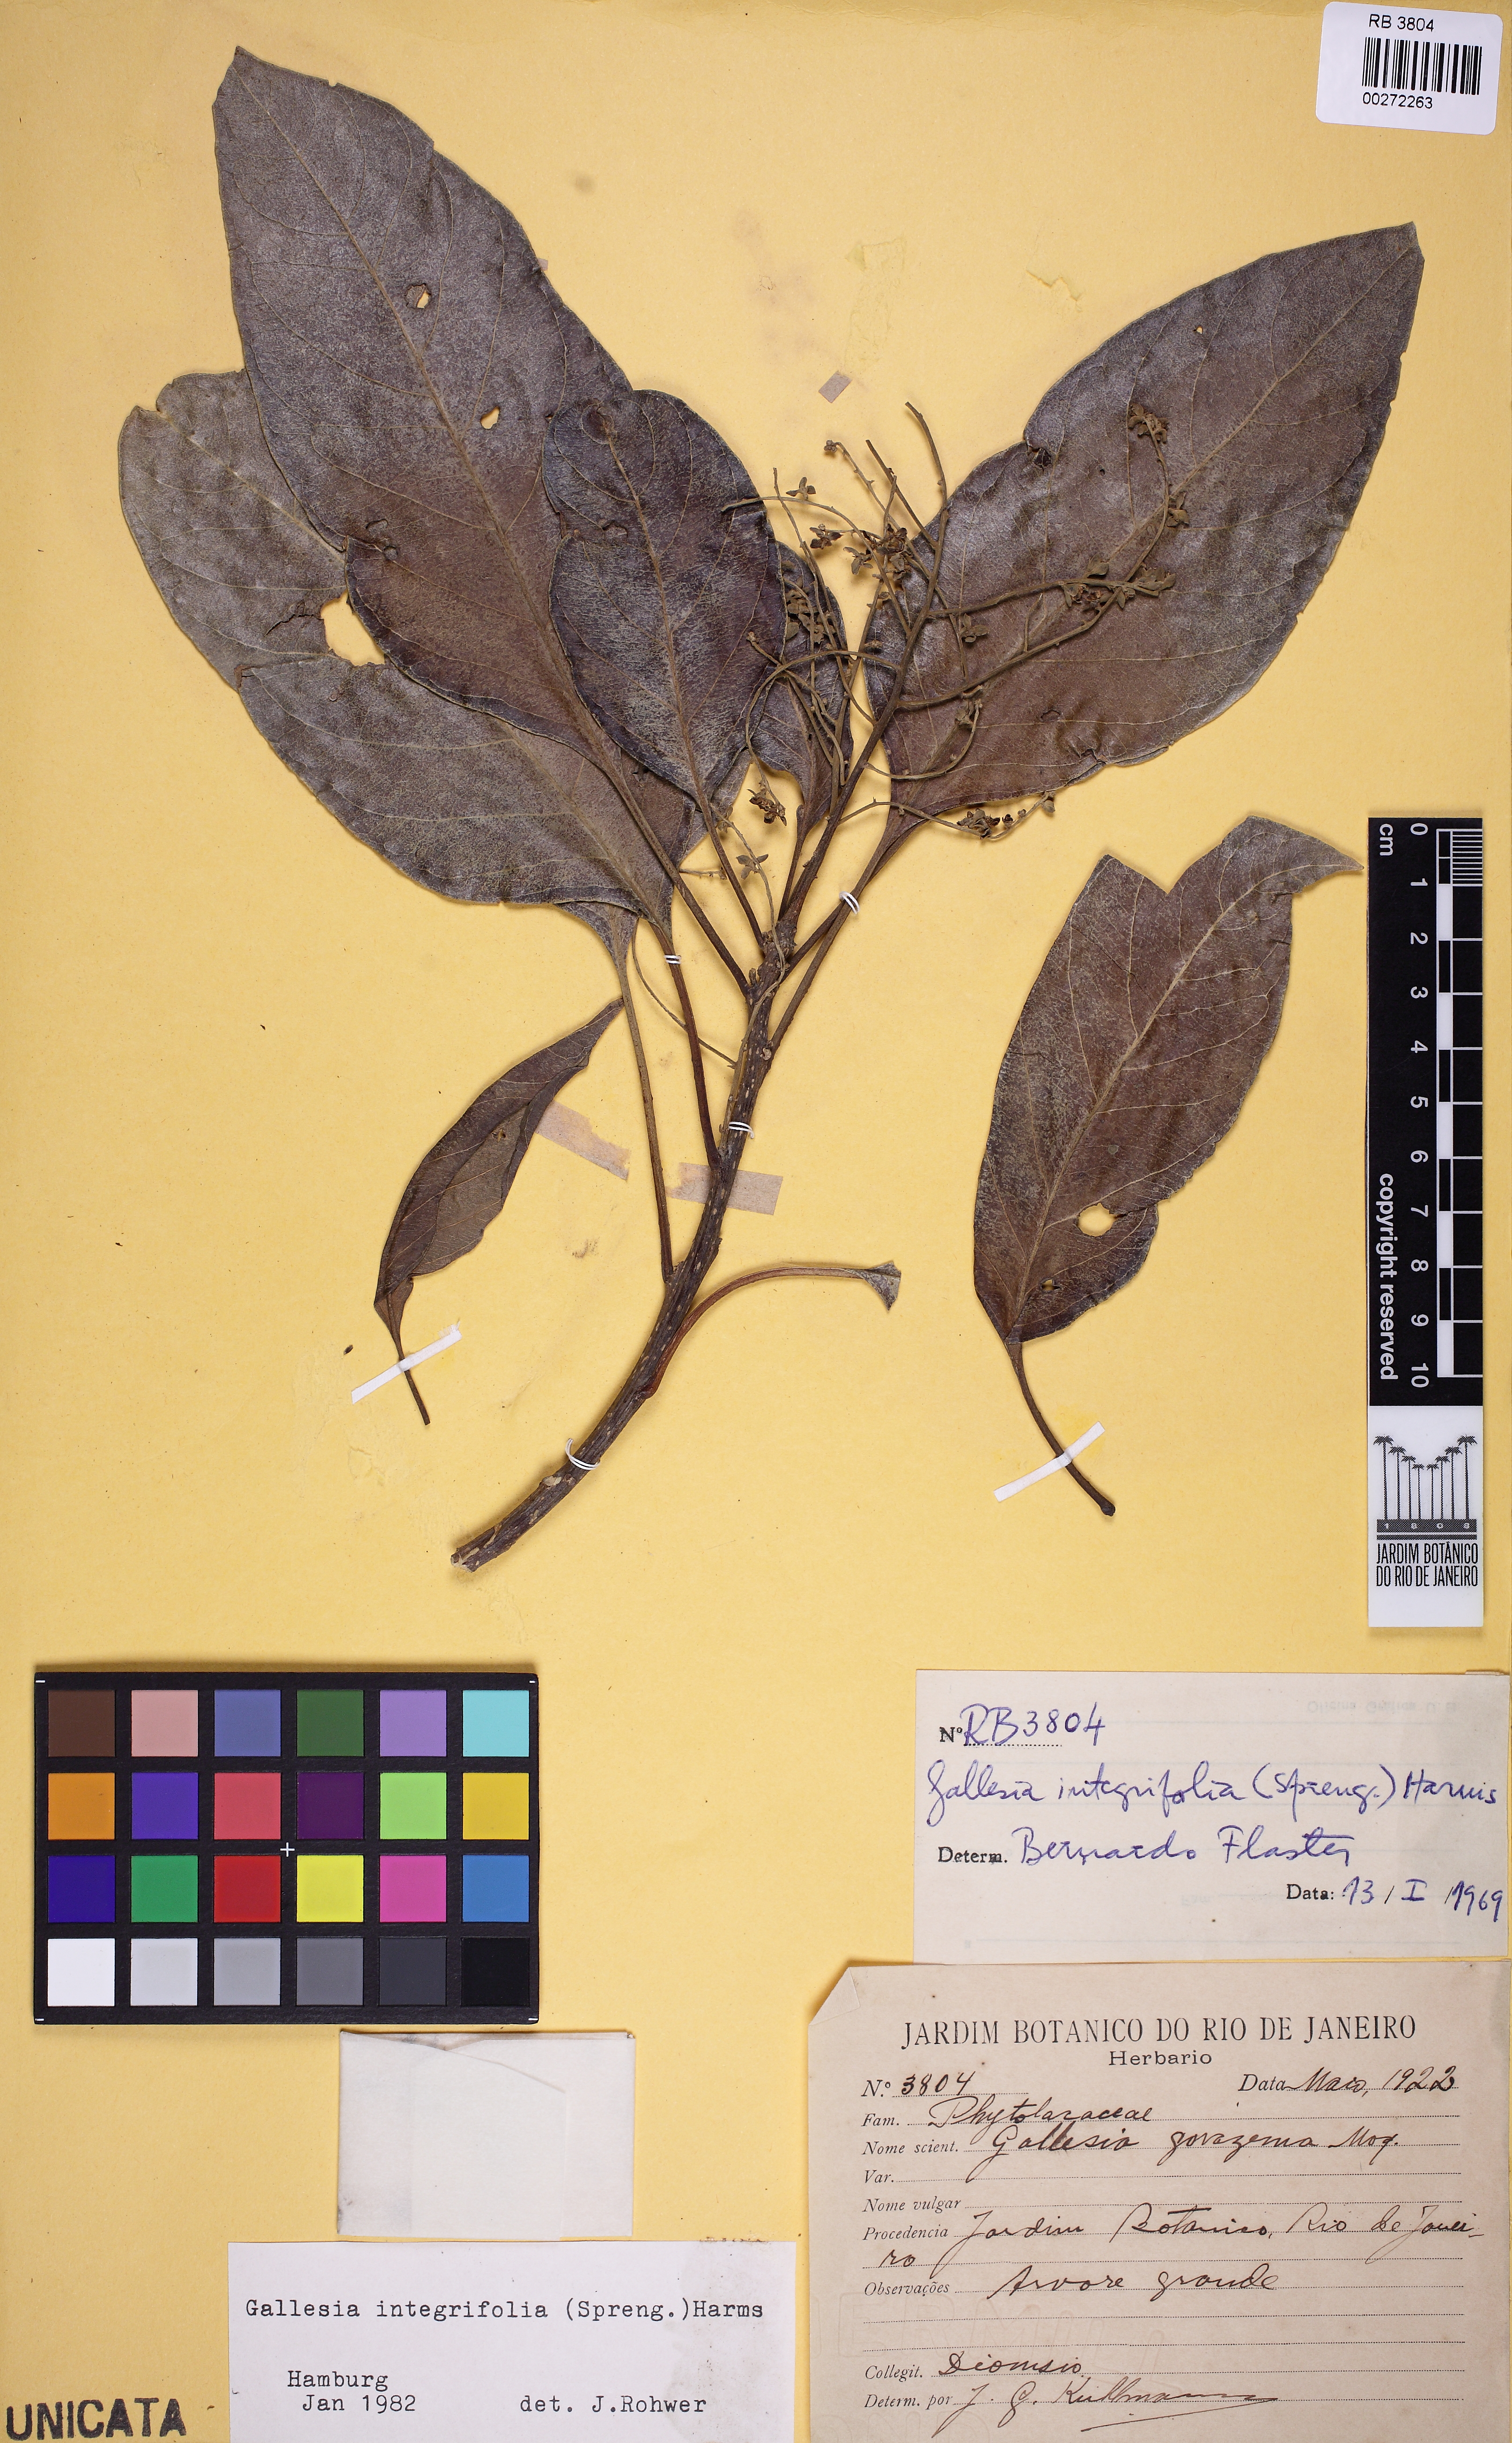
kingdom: Plantae
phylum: Tracheophyta
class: Magnoliopsida
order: Caryophyllales
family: Phytolaccaceae
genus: Gallesia
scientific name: Gallesia integrifolia
